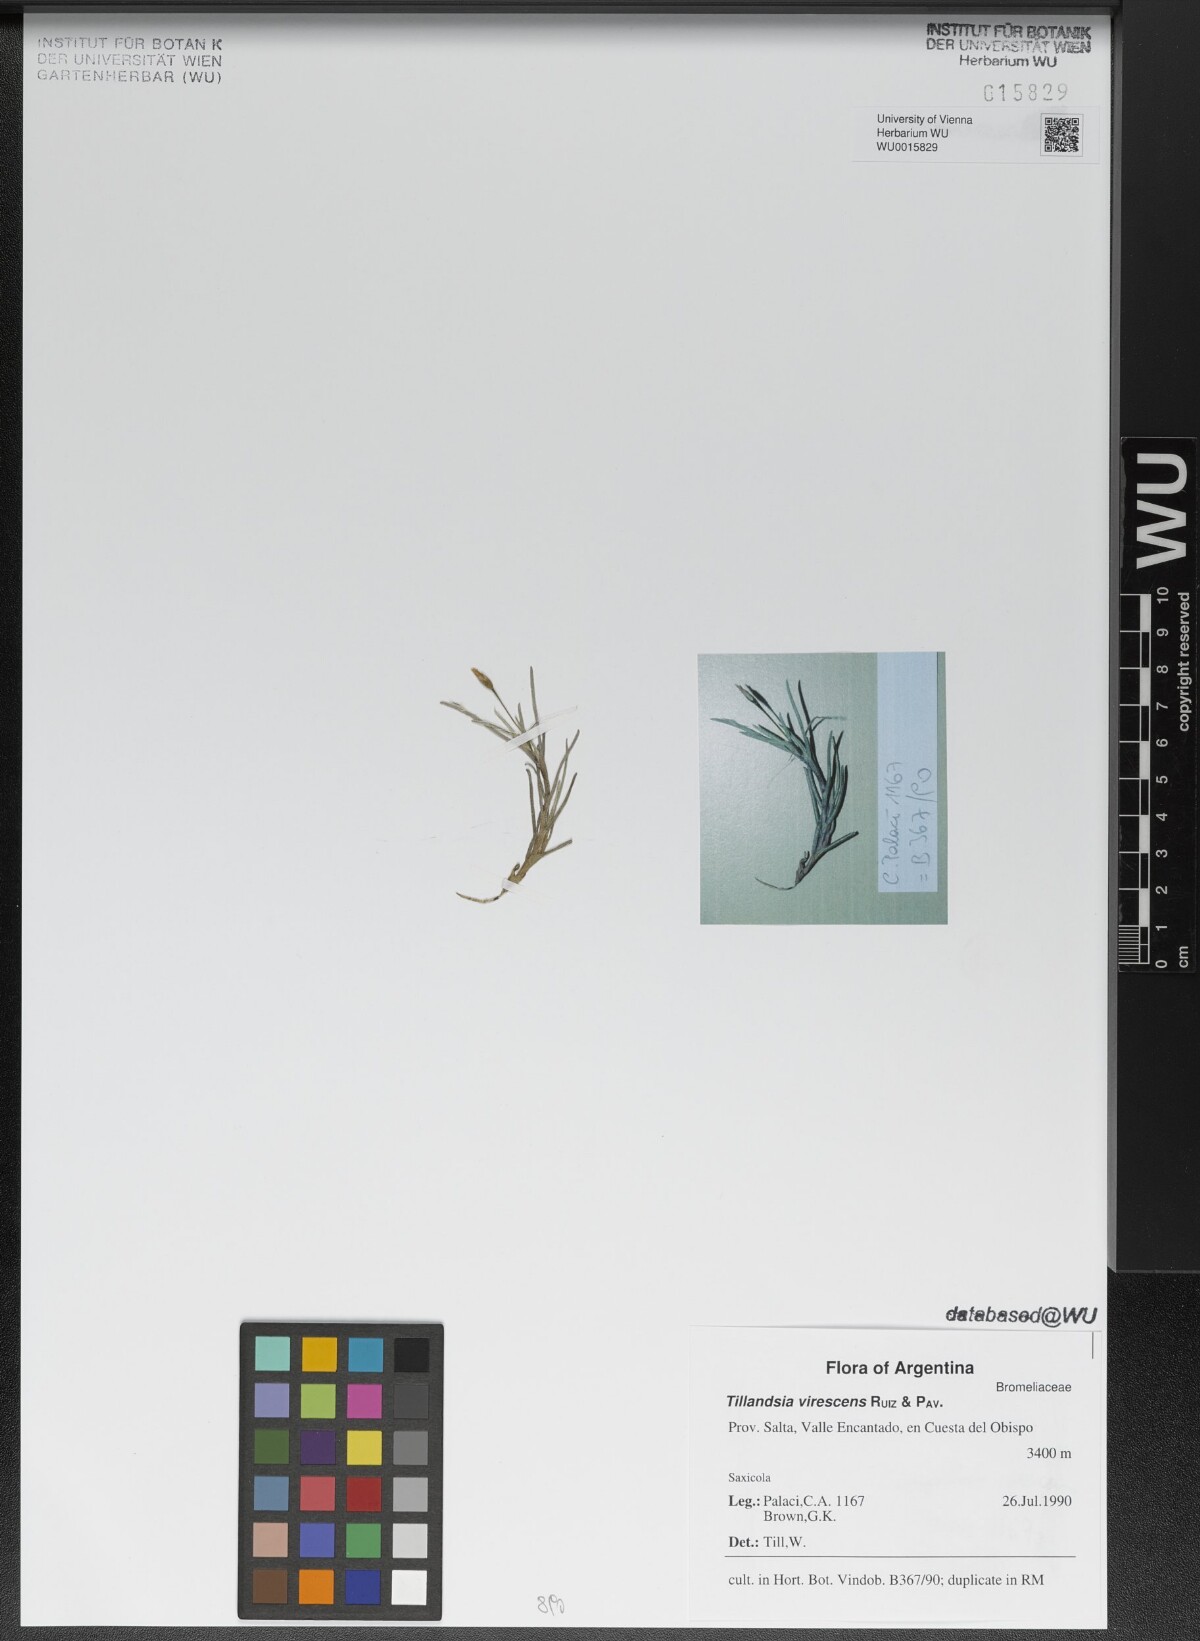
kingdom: Plantae
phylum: Tracheophyta
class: Liliopsida
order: Poales
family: Bromeliaceae
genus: Tillandsia
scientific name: Tillandsia virescens
